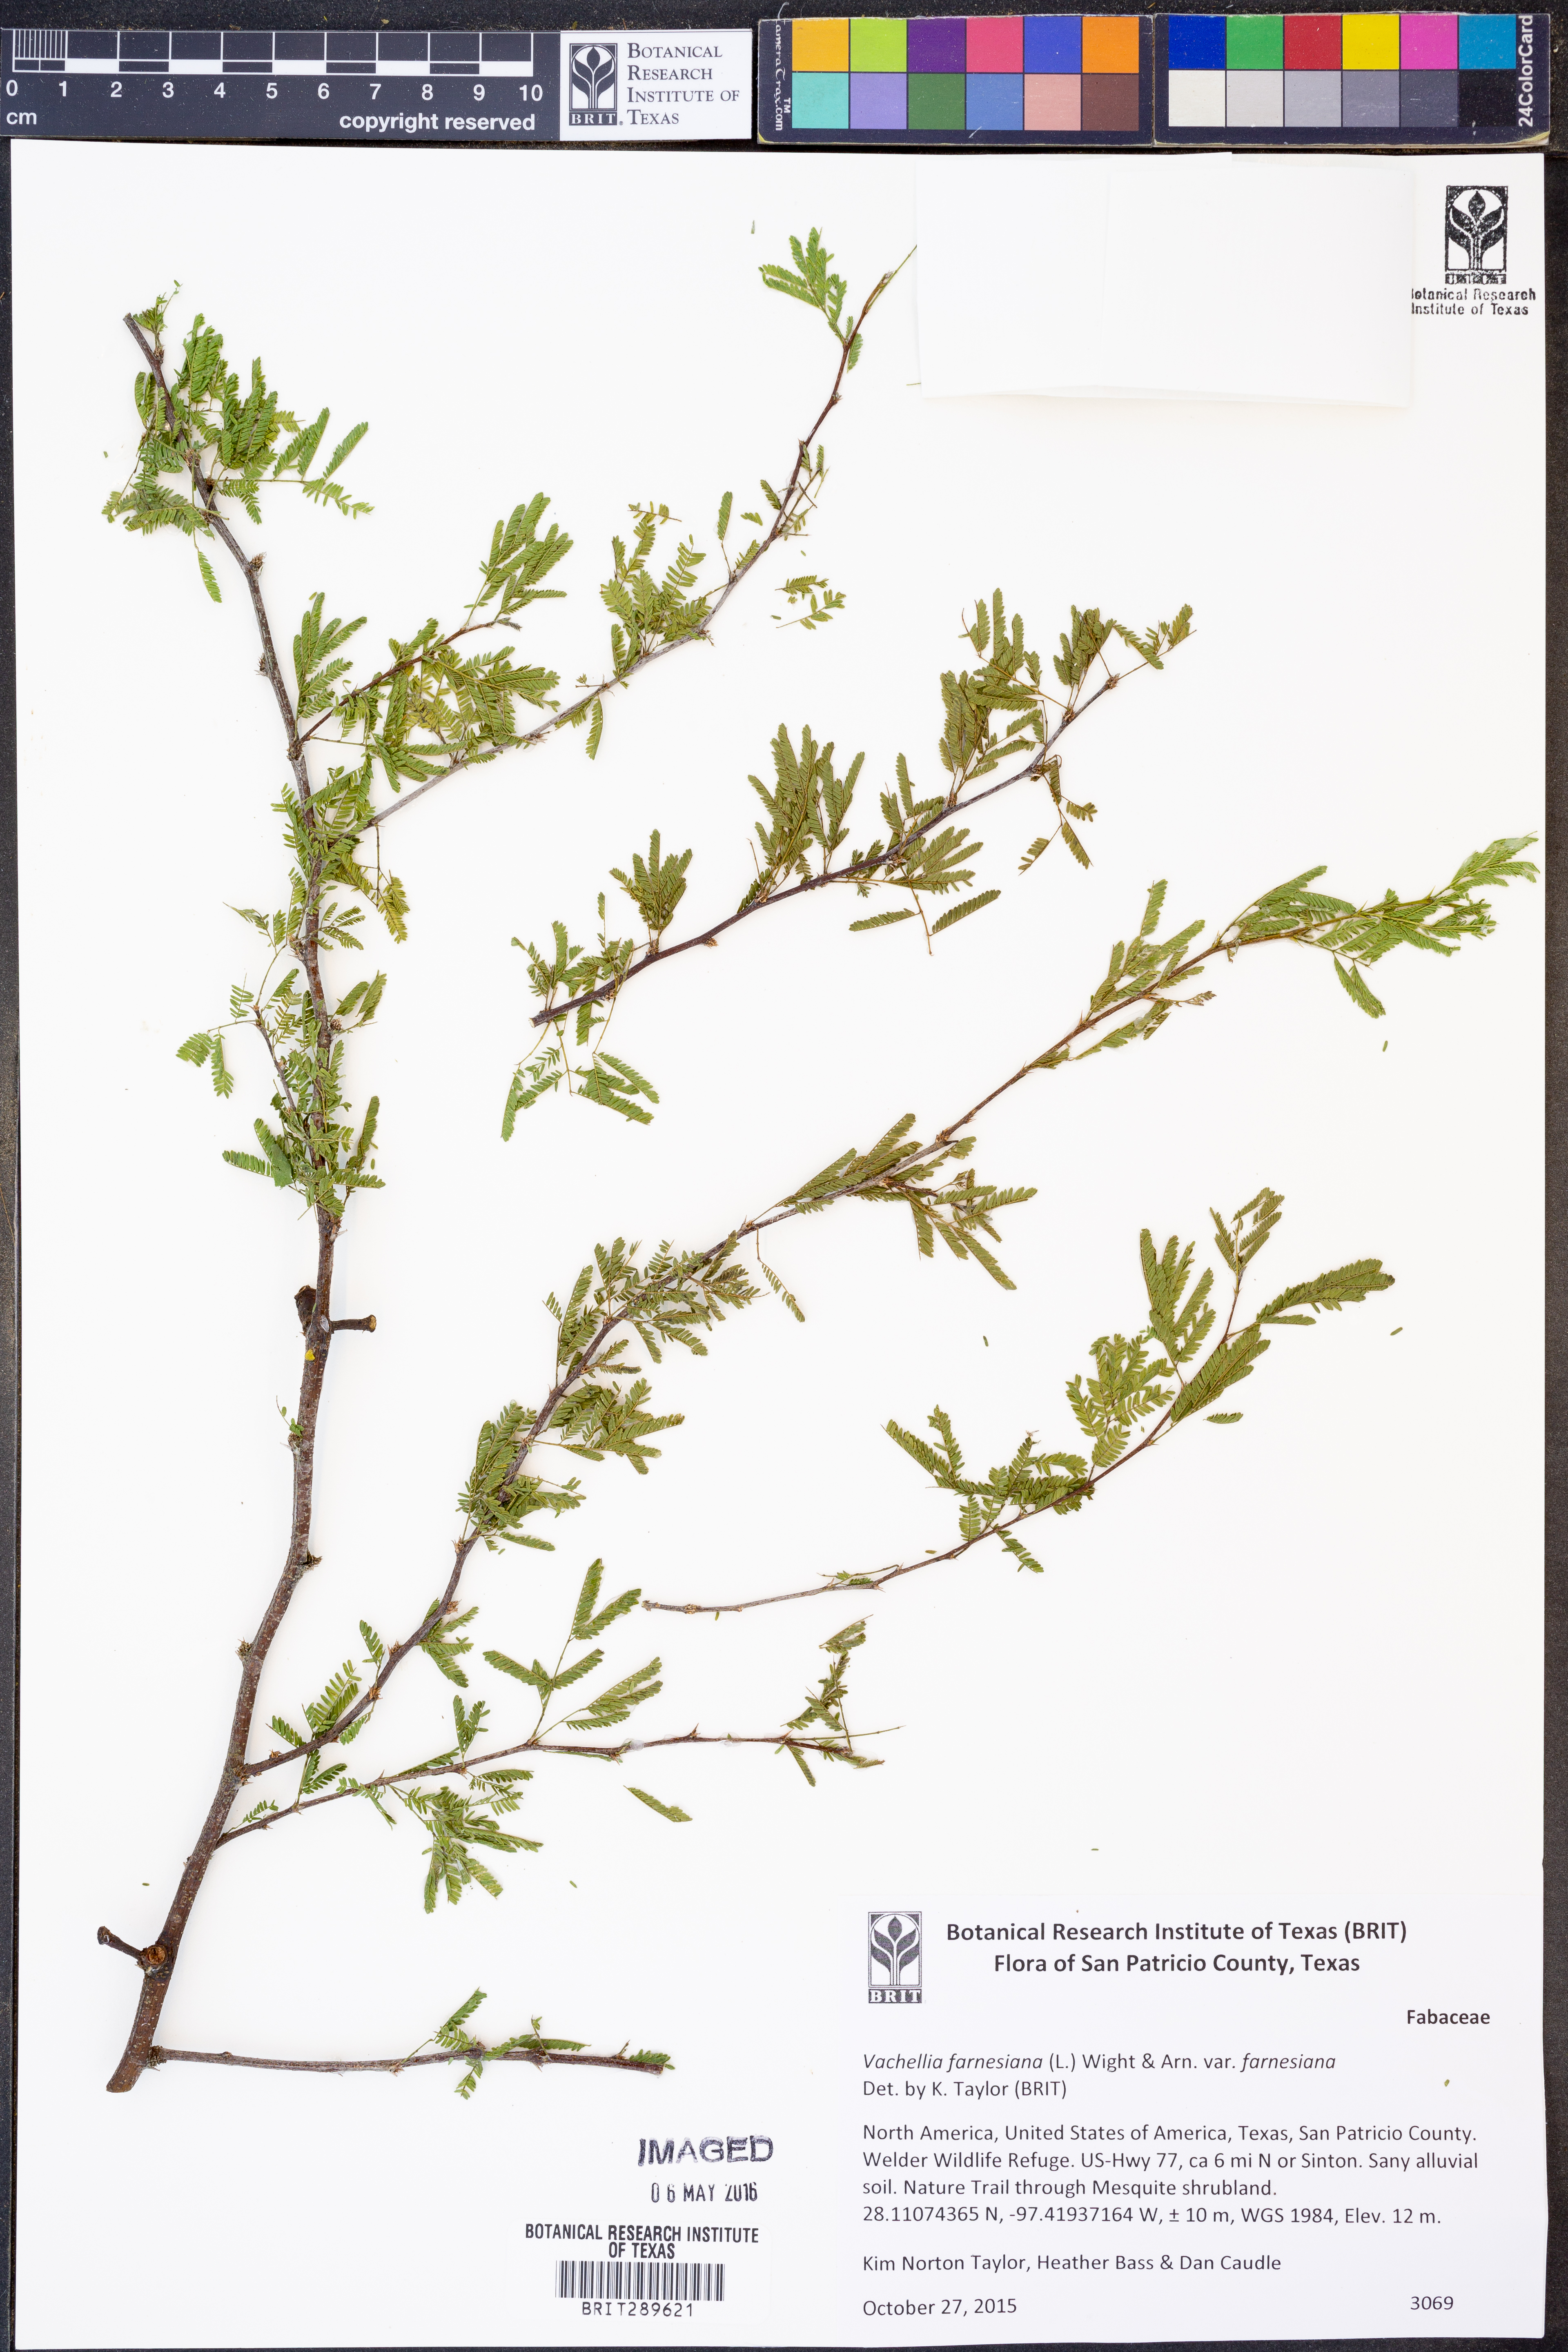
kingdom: Plantae
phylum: Tracheophyta
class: Magnoliopsida
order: Fabales
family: Fabaceae
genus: Vachellia
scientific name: Vachellia farnesiana
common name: Sweet acacia
